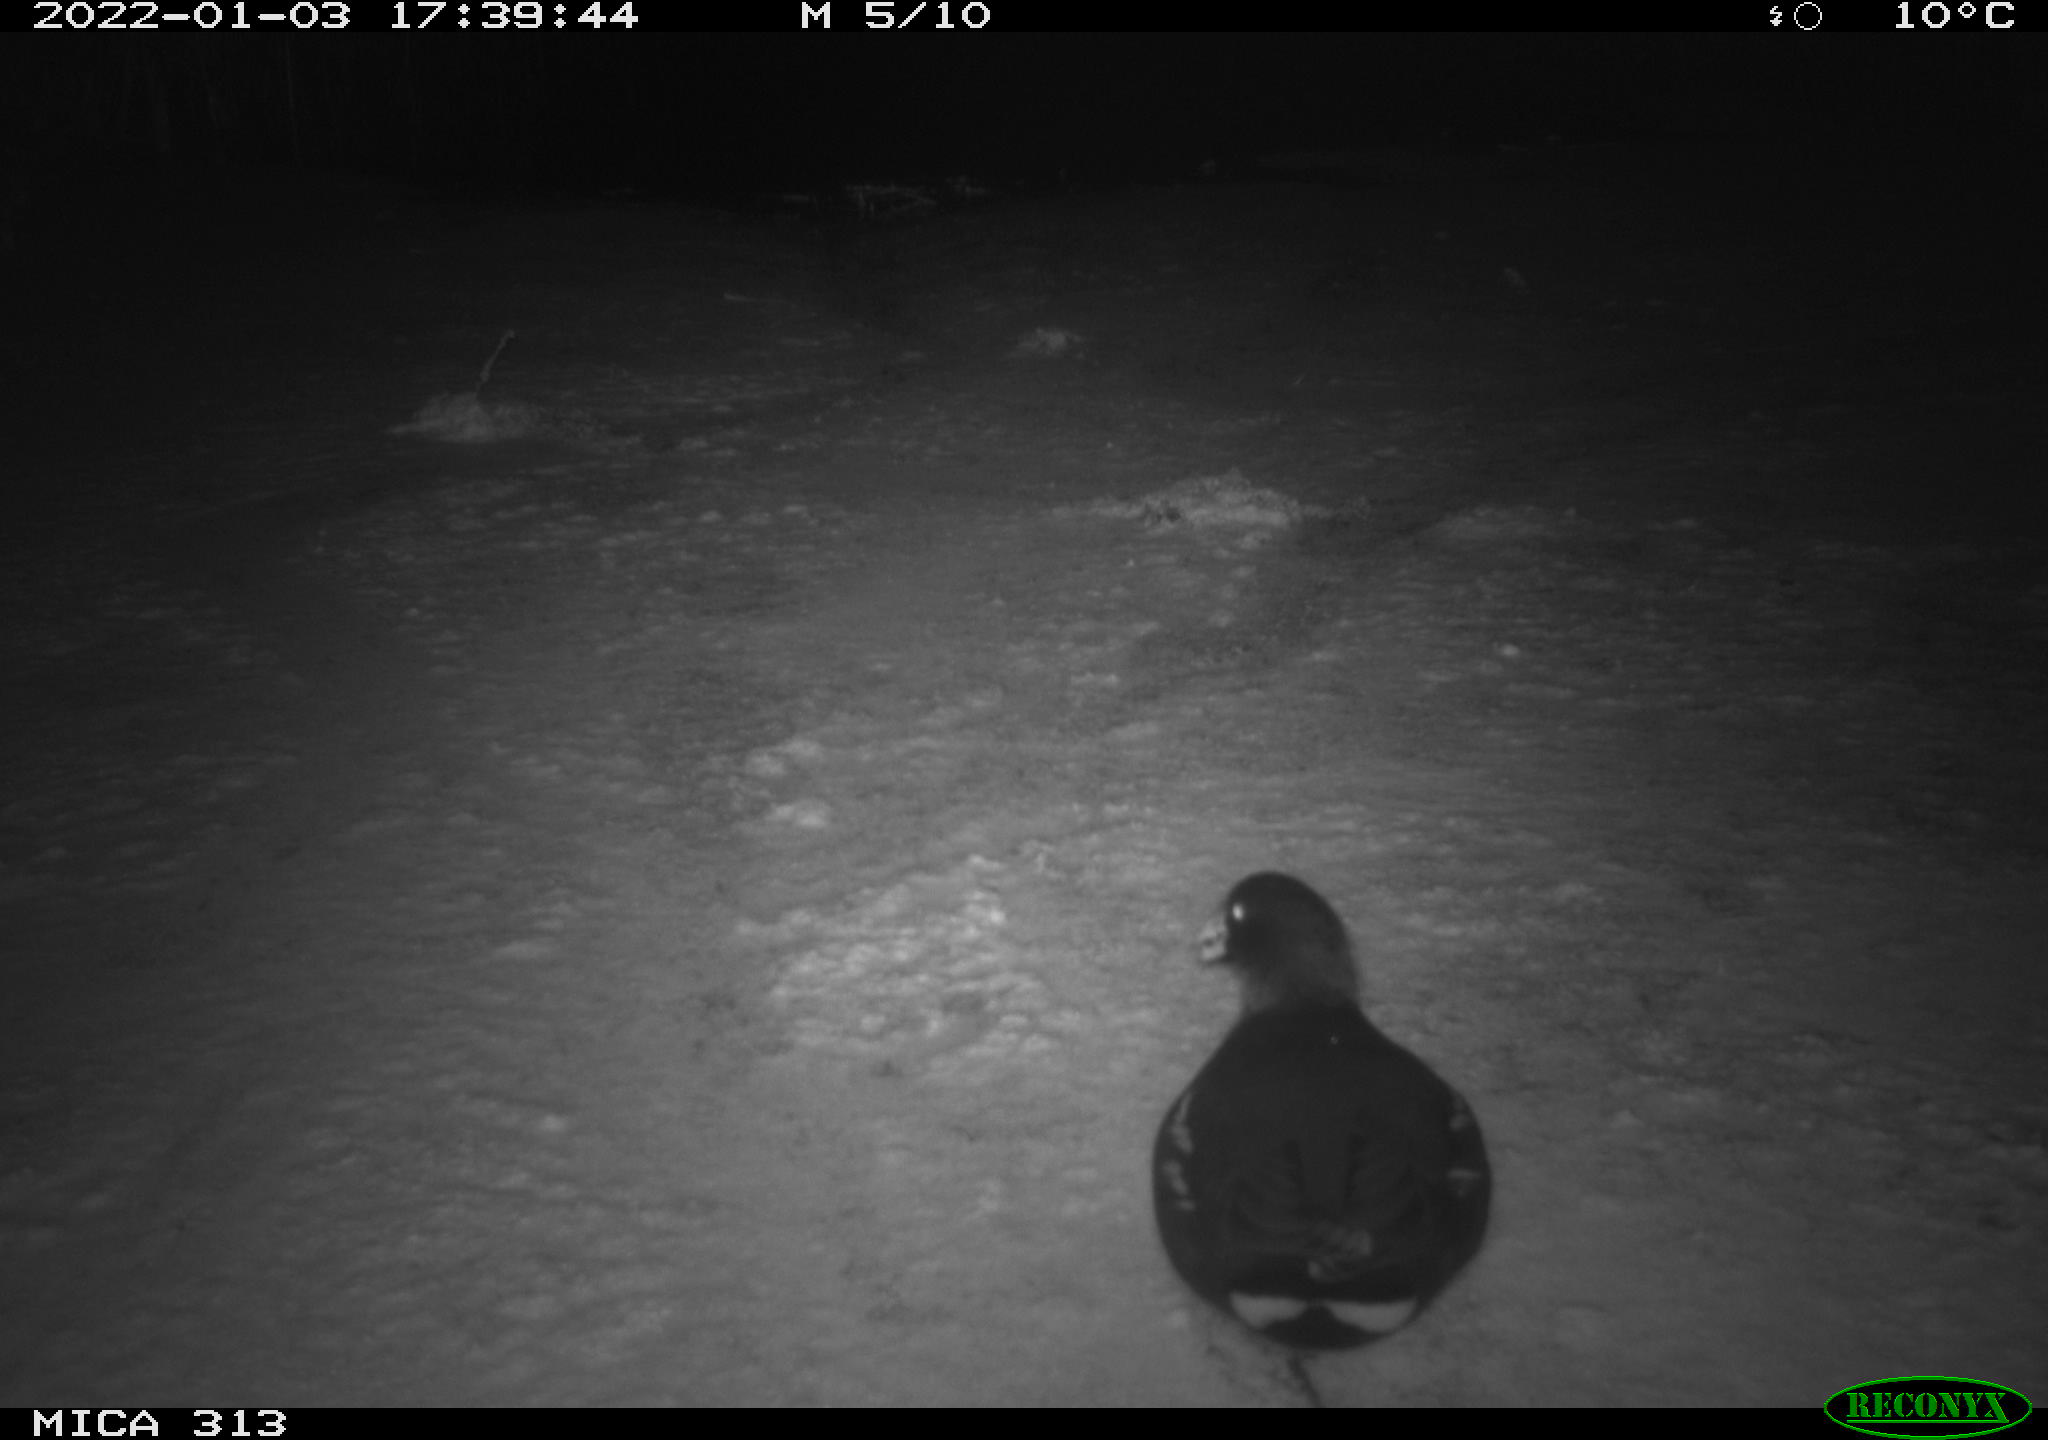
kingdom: Animalia
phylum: Chordata
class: Aves
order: Gruiformes
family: Rallidae
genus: Fulica
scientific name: Fulica atra
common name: Eurasian coot
